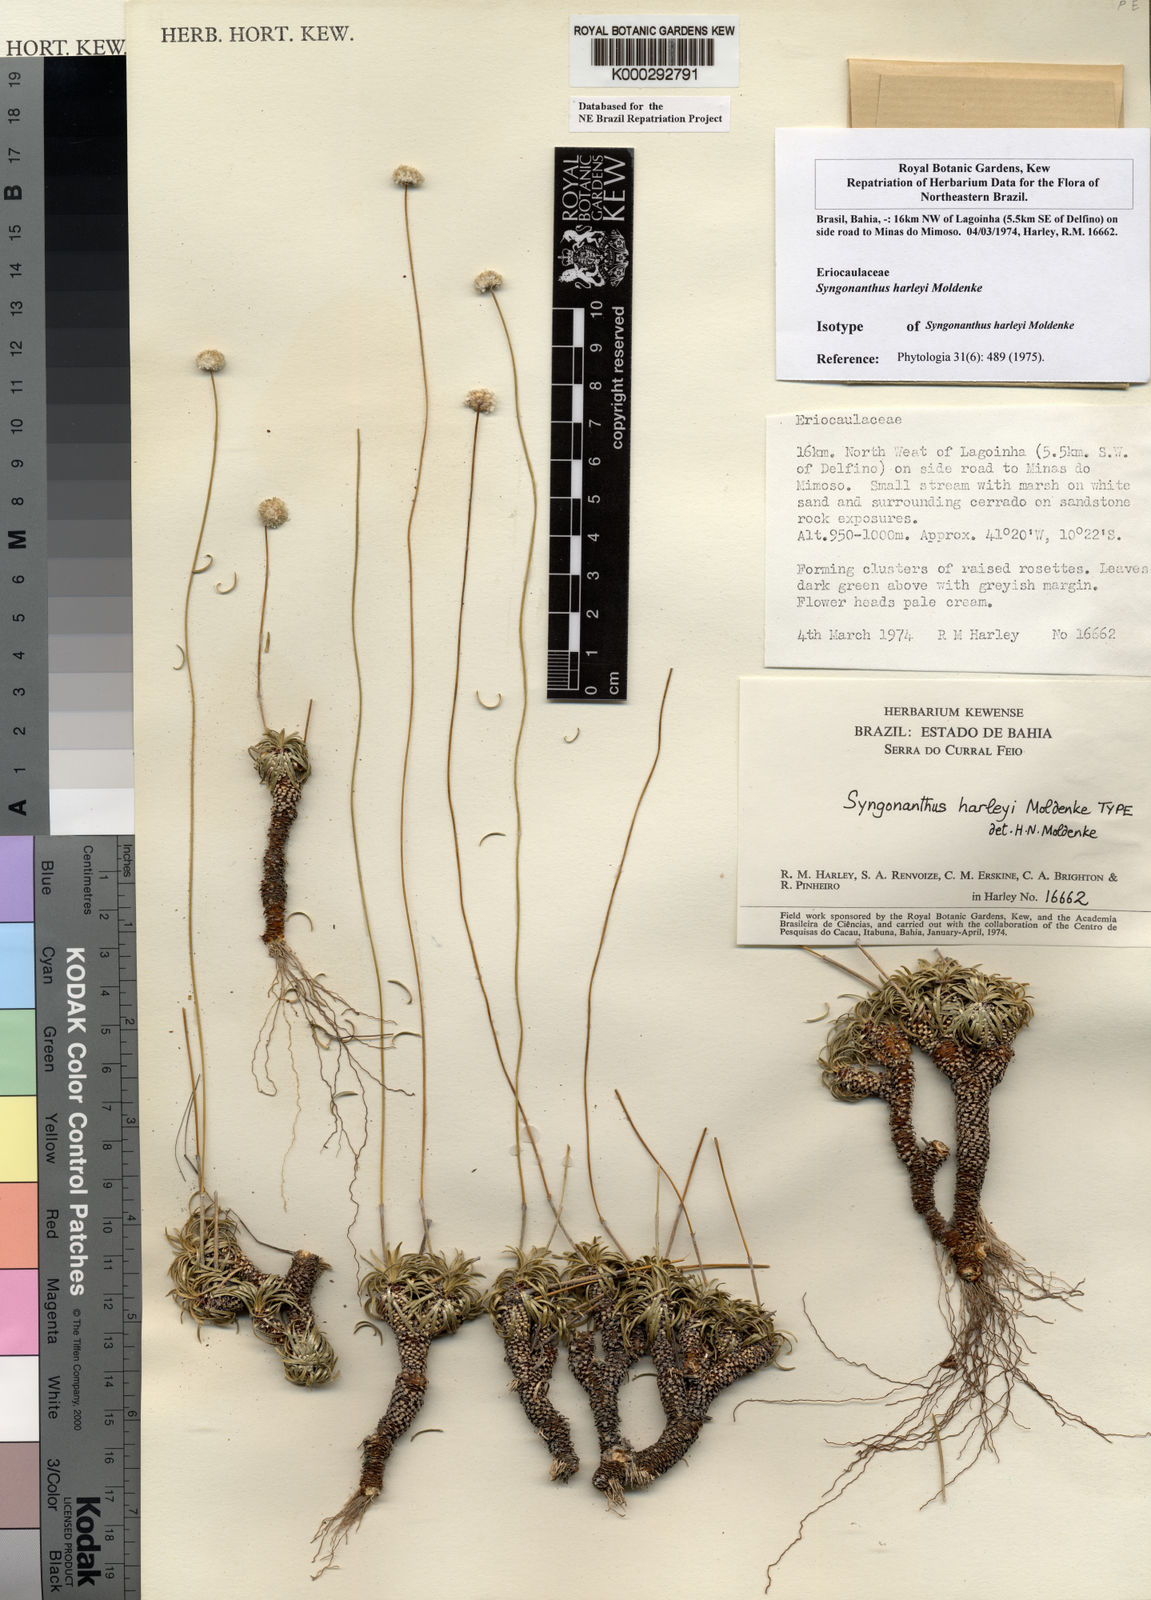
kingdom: Plantae
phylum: Tracheophyta
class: Liliopsida
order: Poales
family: Eriocaulaceae
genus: Comanthera
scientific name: Comanthera harleyi
